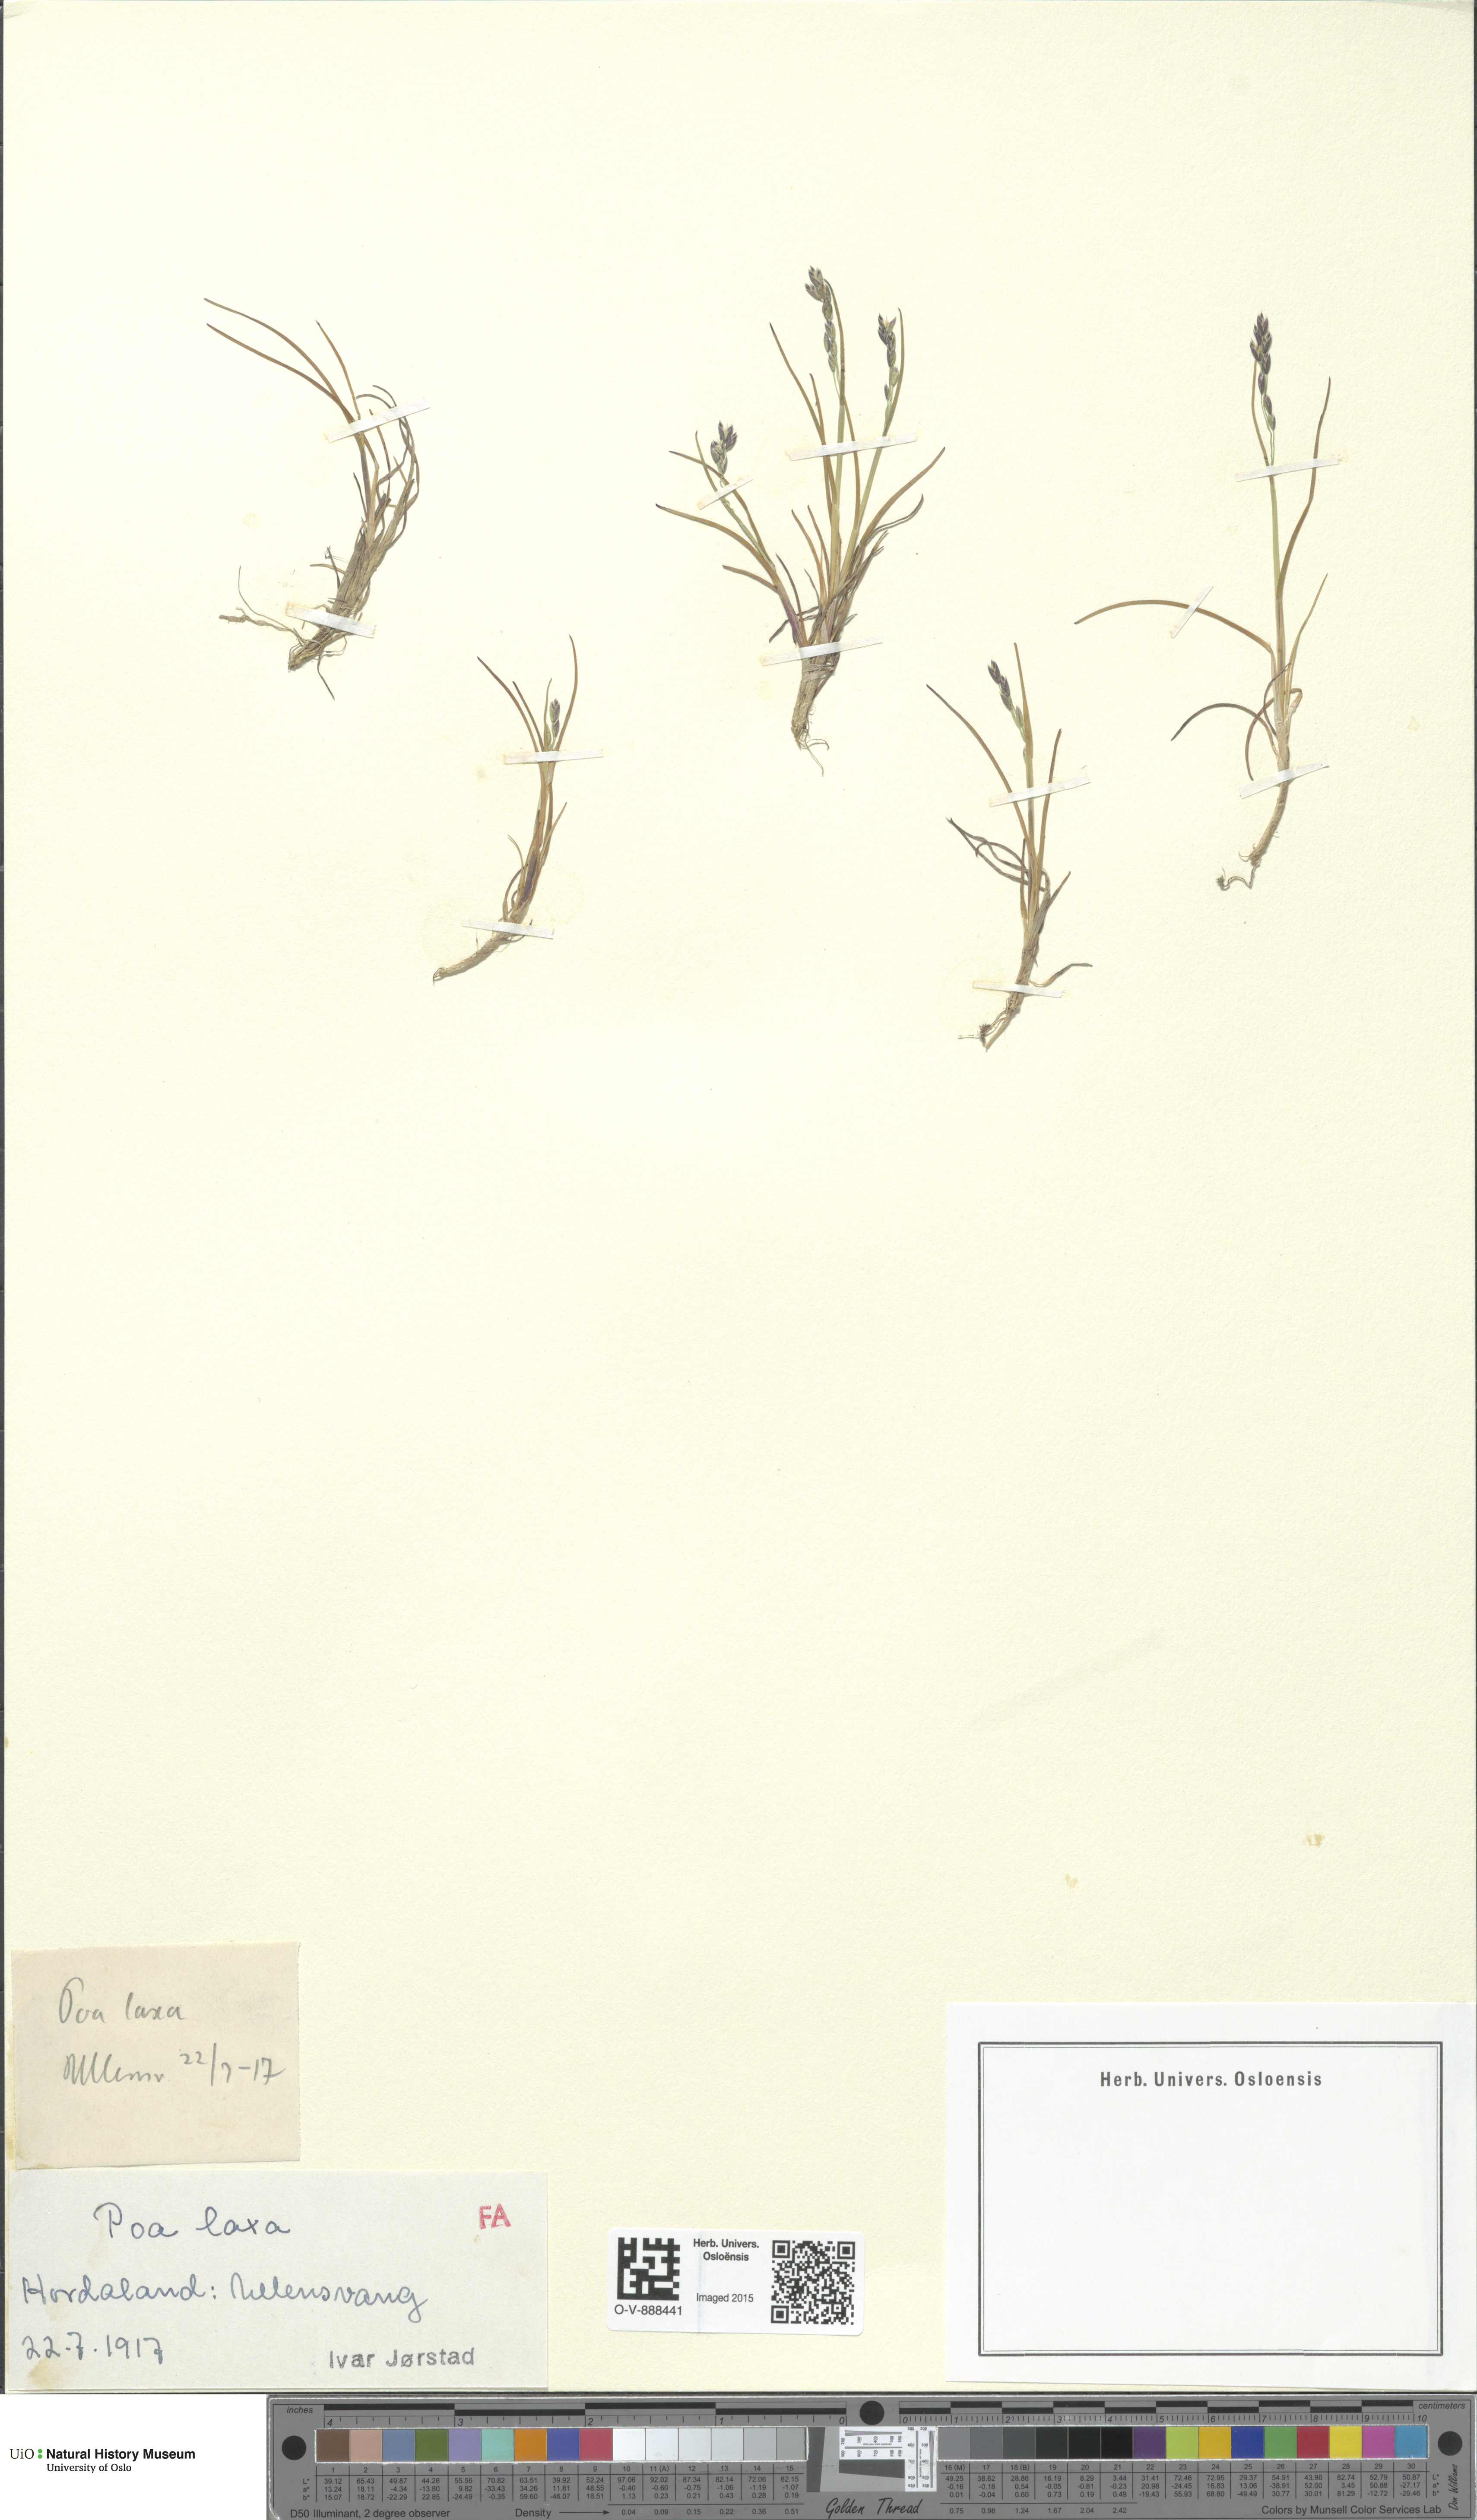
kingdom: Plantae
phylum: Tracheophyta
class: Liliopsida
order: Poales
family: Poaceae
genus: Poa
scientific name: Poa flexuosa
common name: Wavy meadow-grass
